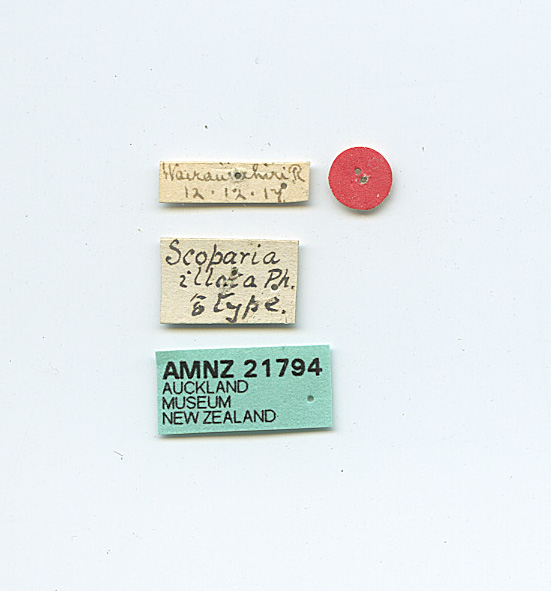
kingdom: Animalia
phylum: Arthropoda
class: Insecta
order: Lepidoptera
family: Crambidae
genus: Scoparia
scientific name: Scoparia illota
